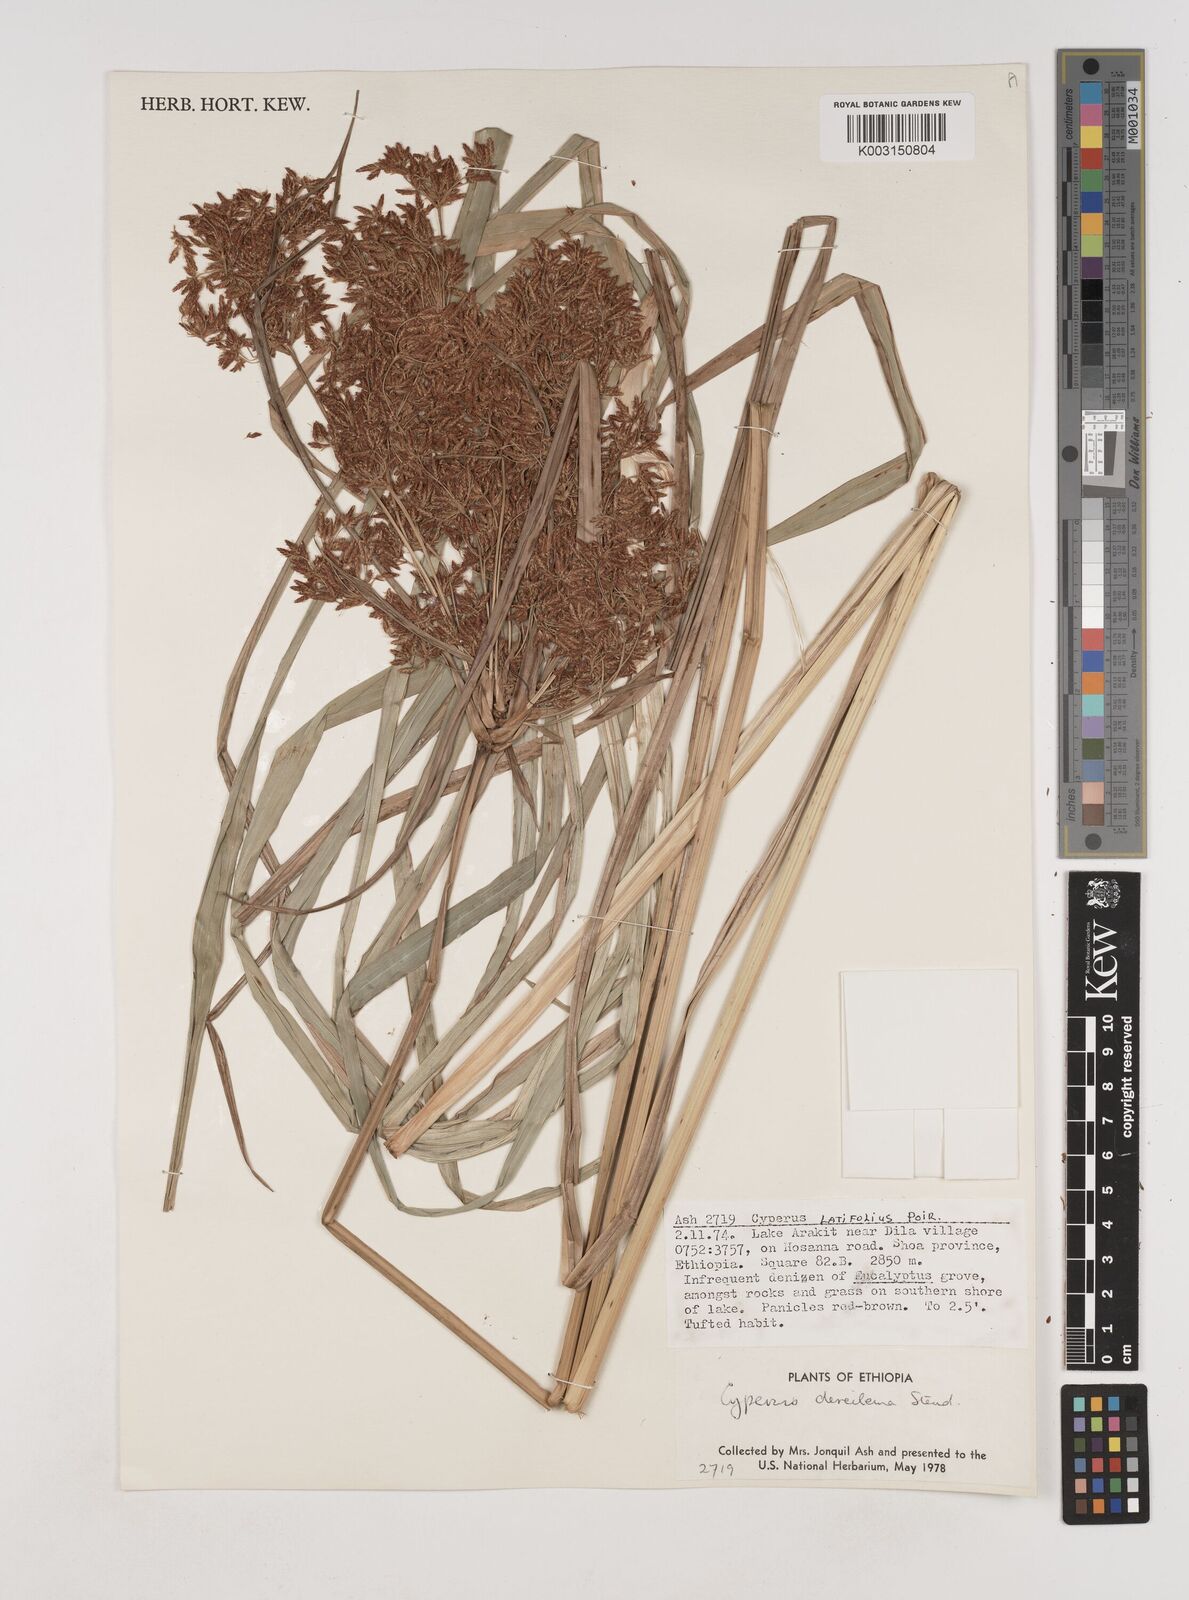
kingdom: Plantae
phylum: Tracheophyta
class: Liliopsida
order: Poales
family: Cyperaceae
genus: Cyperus
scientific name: Cyperus derreilema
